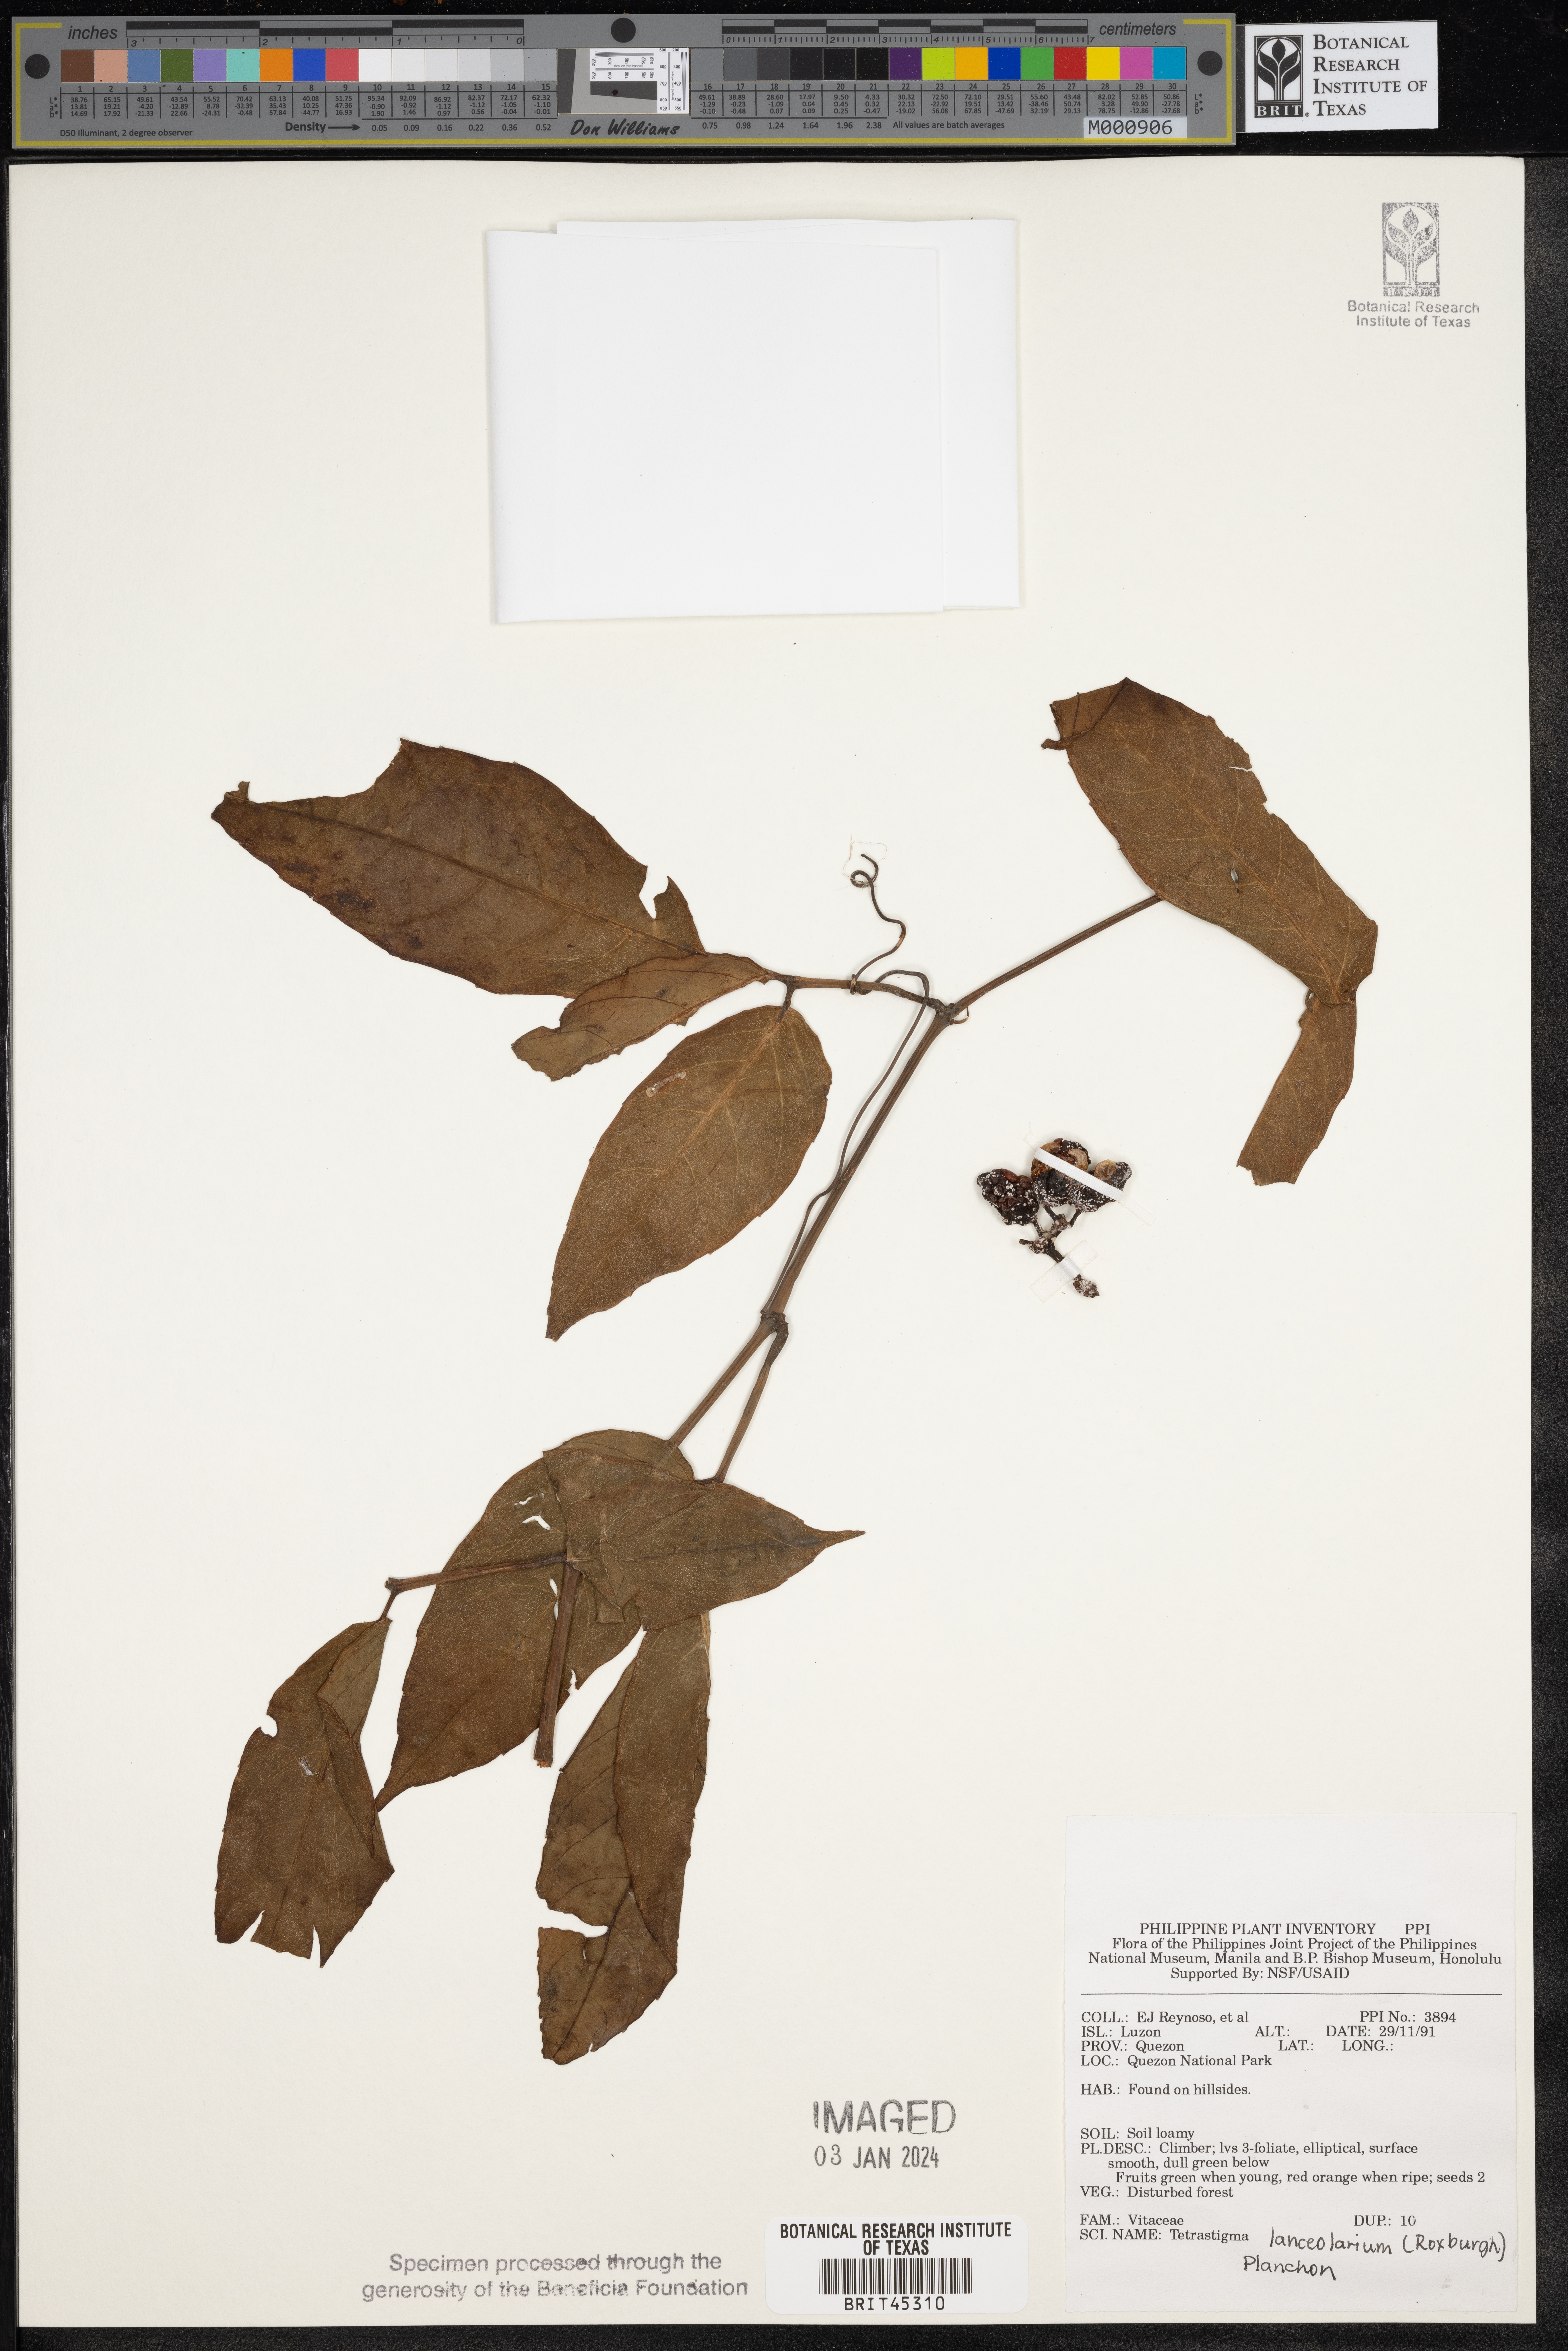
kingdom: Plantae
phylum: Tracheophyta
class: Magnoliopsida
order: Vitales
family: Vitaceae
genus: Tetrastigma
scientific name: Tetrastigma leucostaphylum
